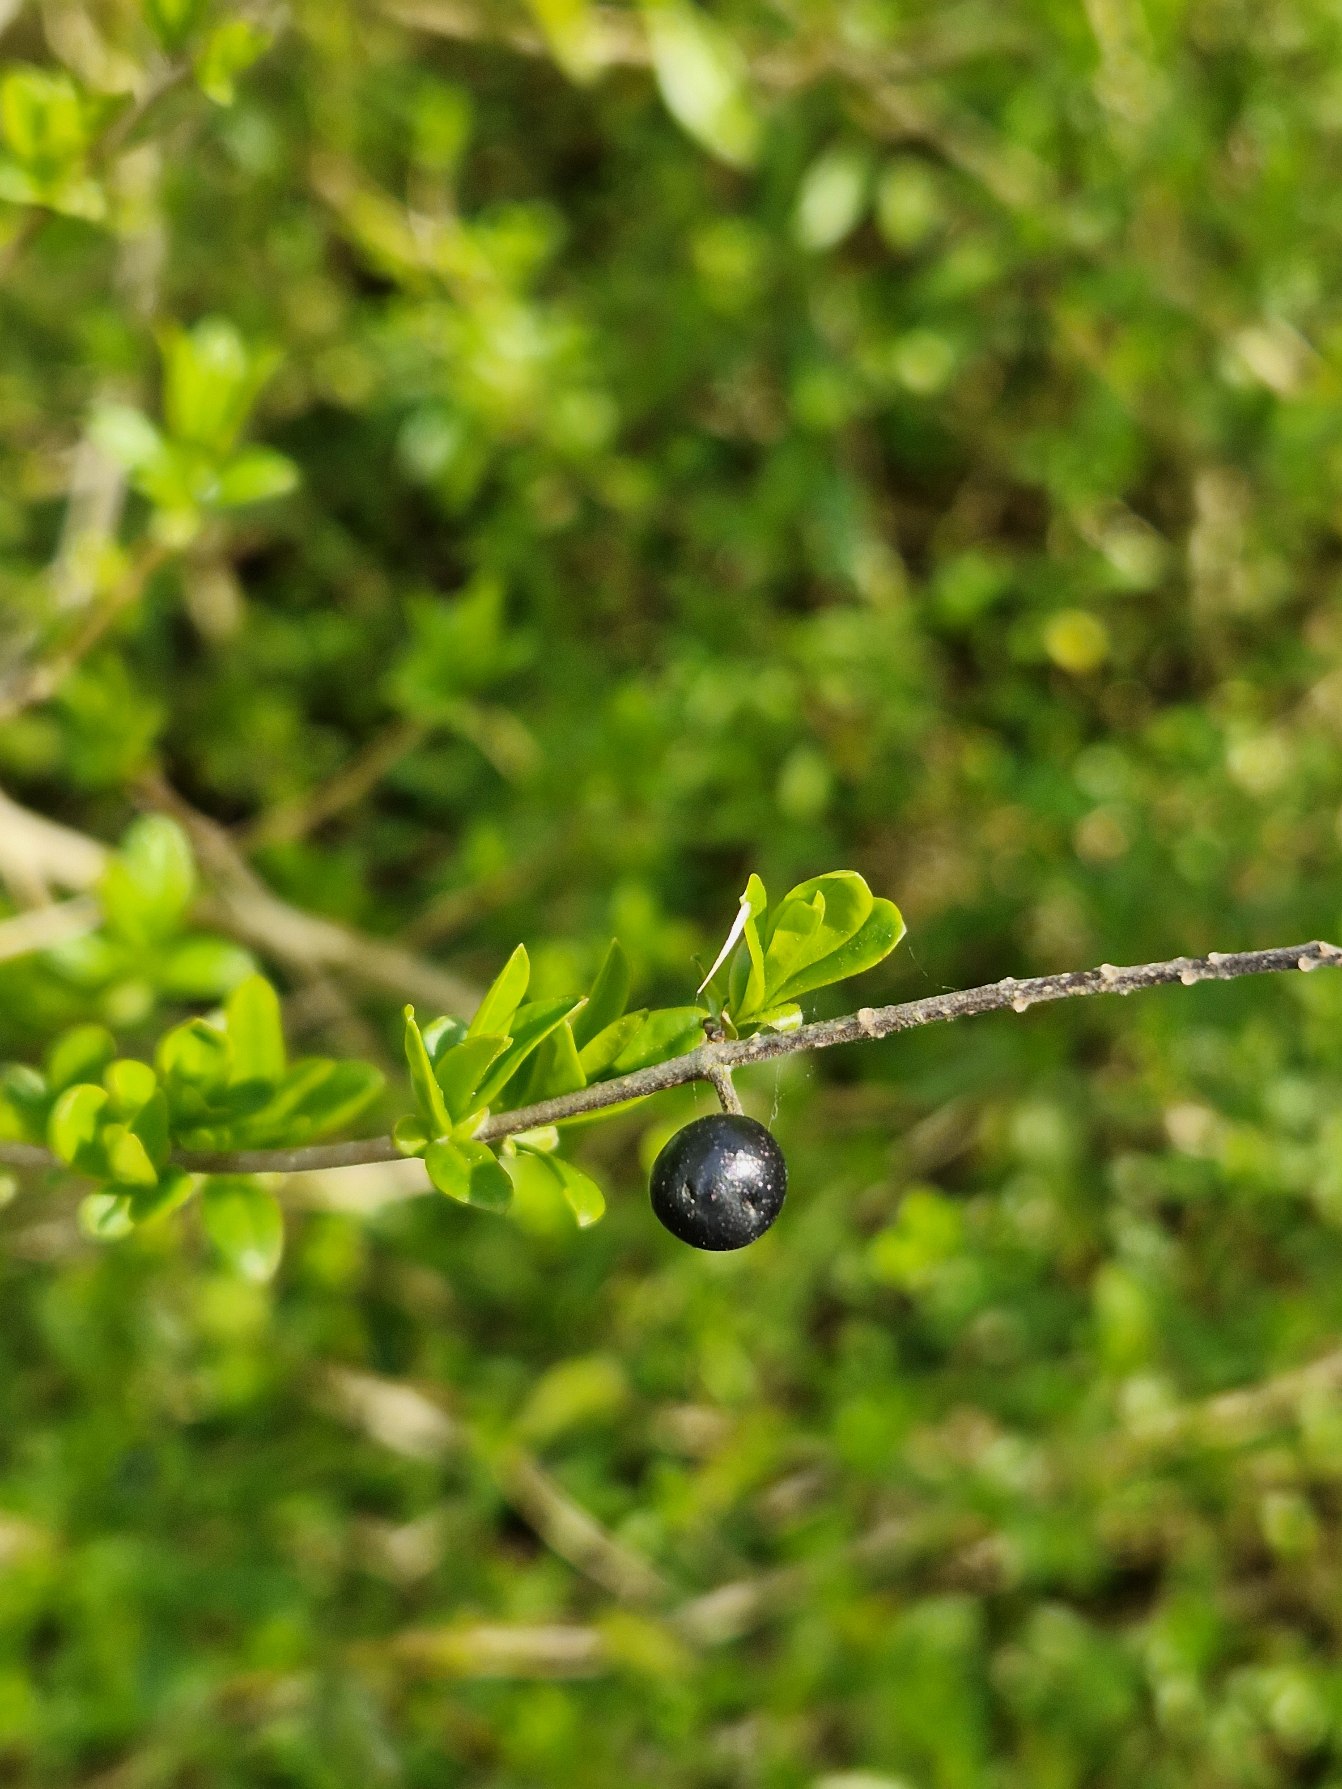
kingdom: Plantae
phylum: Tracheophyta
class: Magnoliopsida
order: Lamiales
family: Oleaceae
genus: Ligustrum
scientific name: Ligustrum vulgare
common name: Liguster
